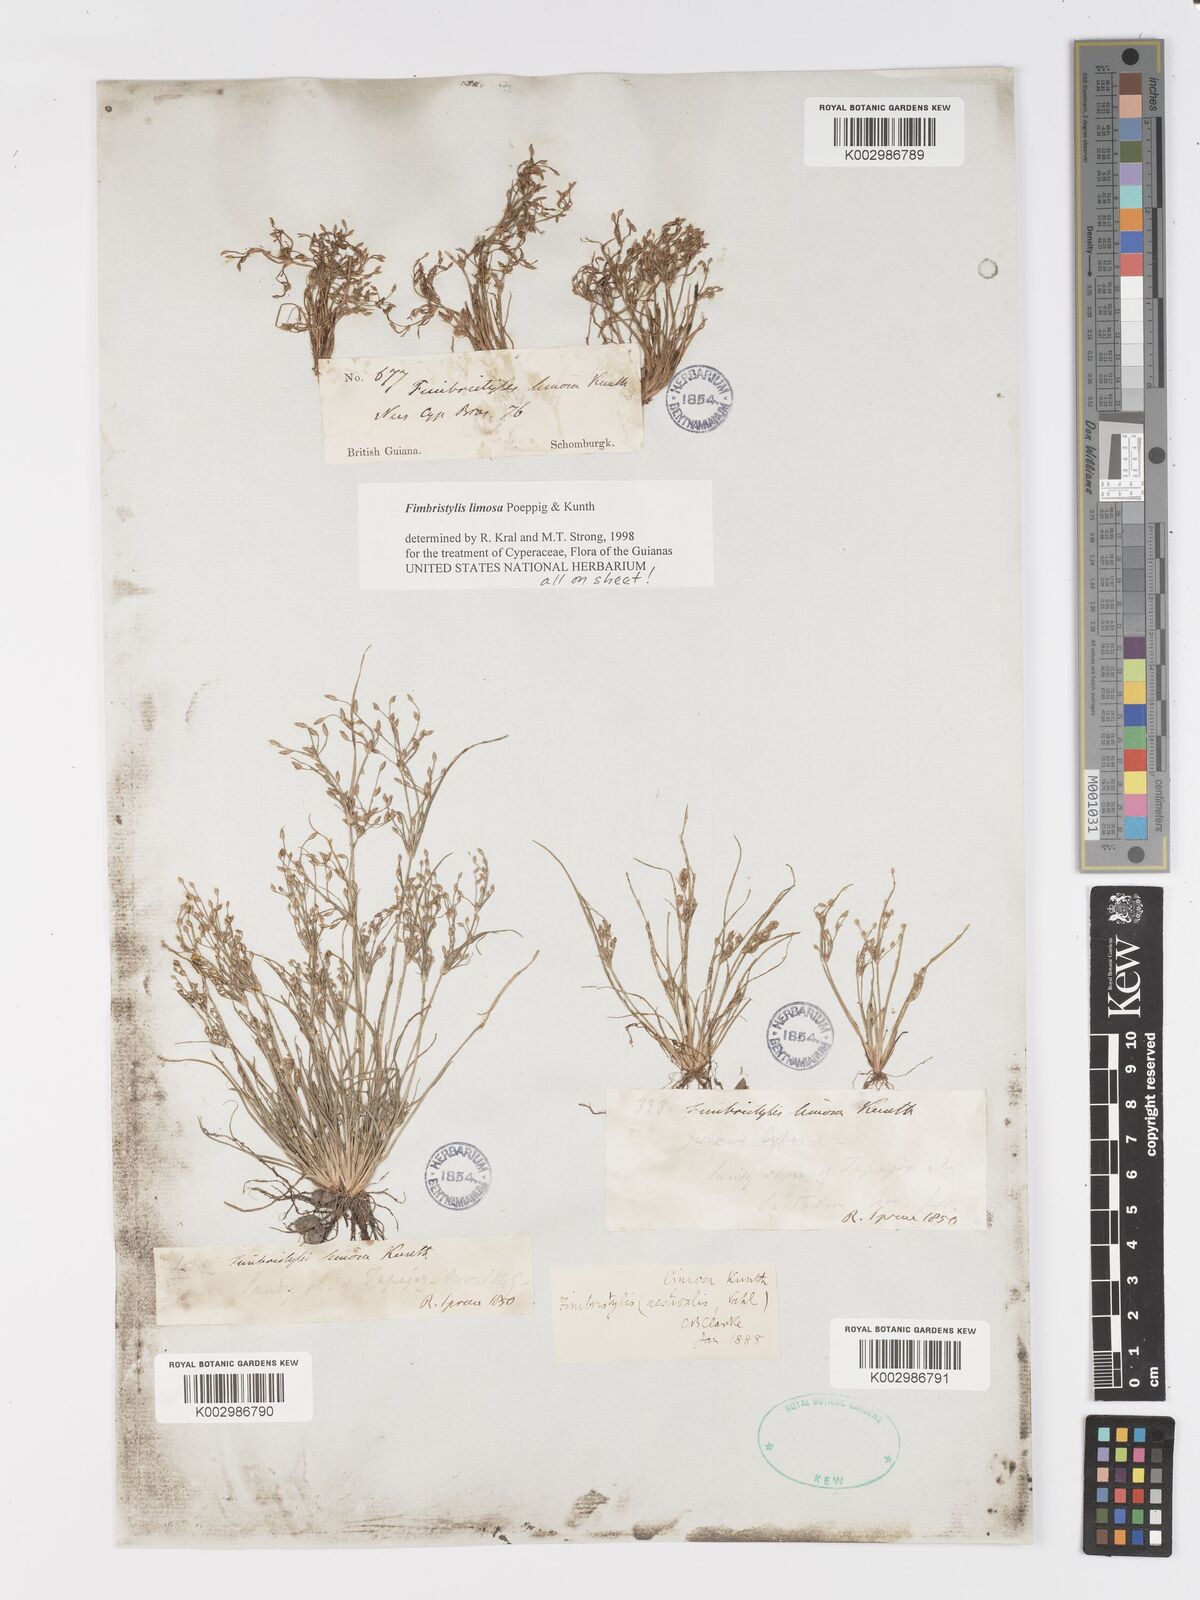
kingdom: Plantae
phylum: Tracheophyta
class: Liliopsida
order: Poales
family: Cyperaceae
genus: Fimbristylis
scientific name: Fimbristylis limosa
